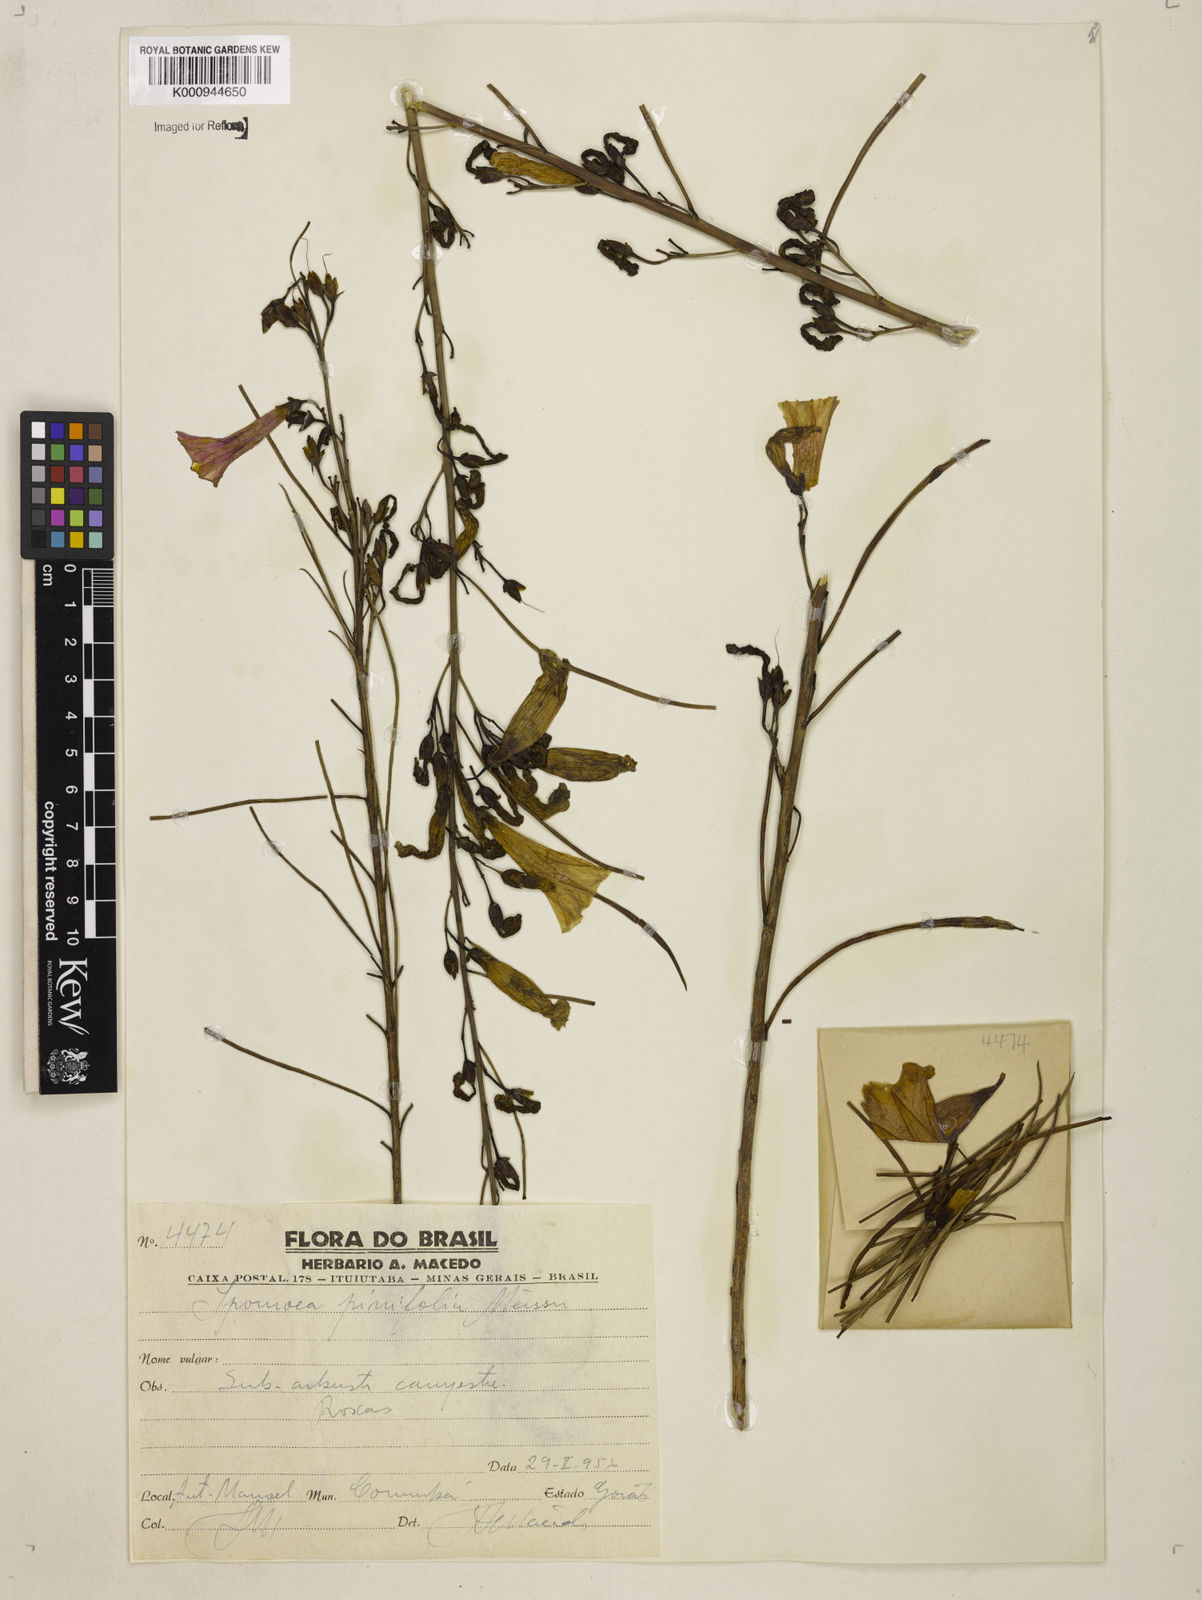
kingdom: Plantae
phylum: Tracheophyta
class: Magnoliopsida
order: Solanales
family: Convolvulaceae
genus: Ipomoea
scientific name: Ipomoea pinifolia
